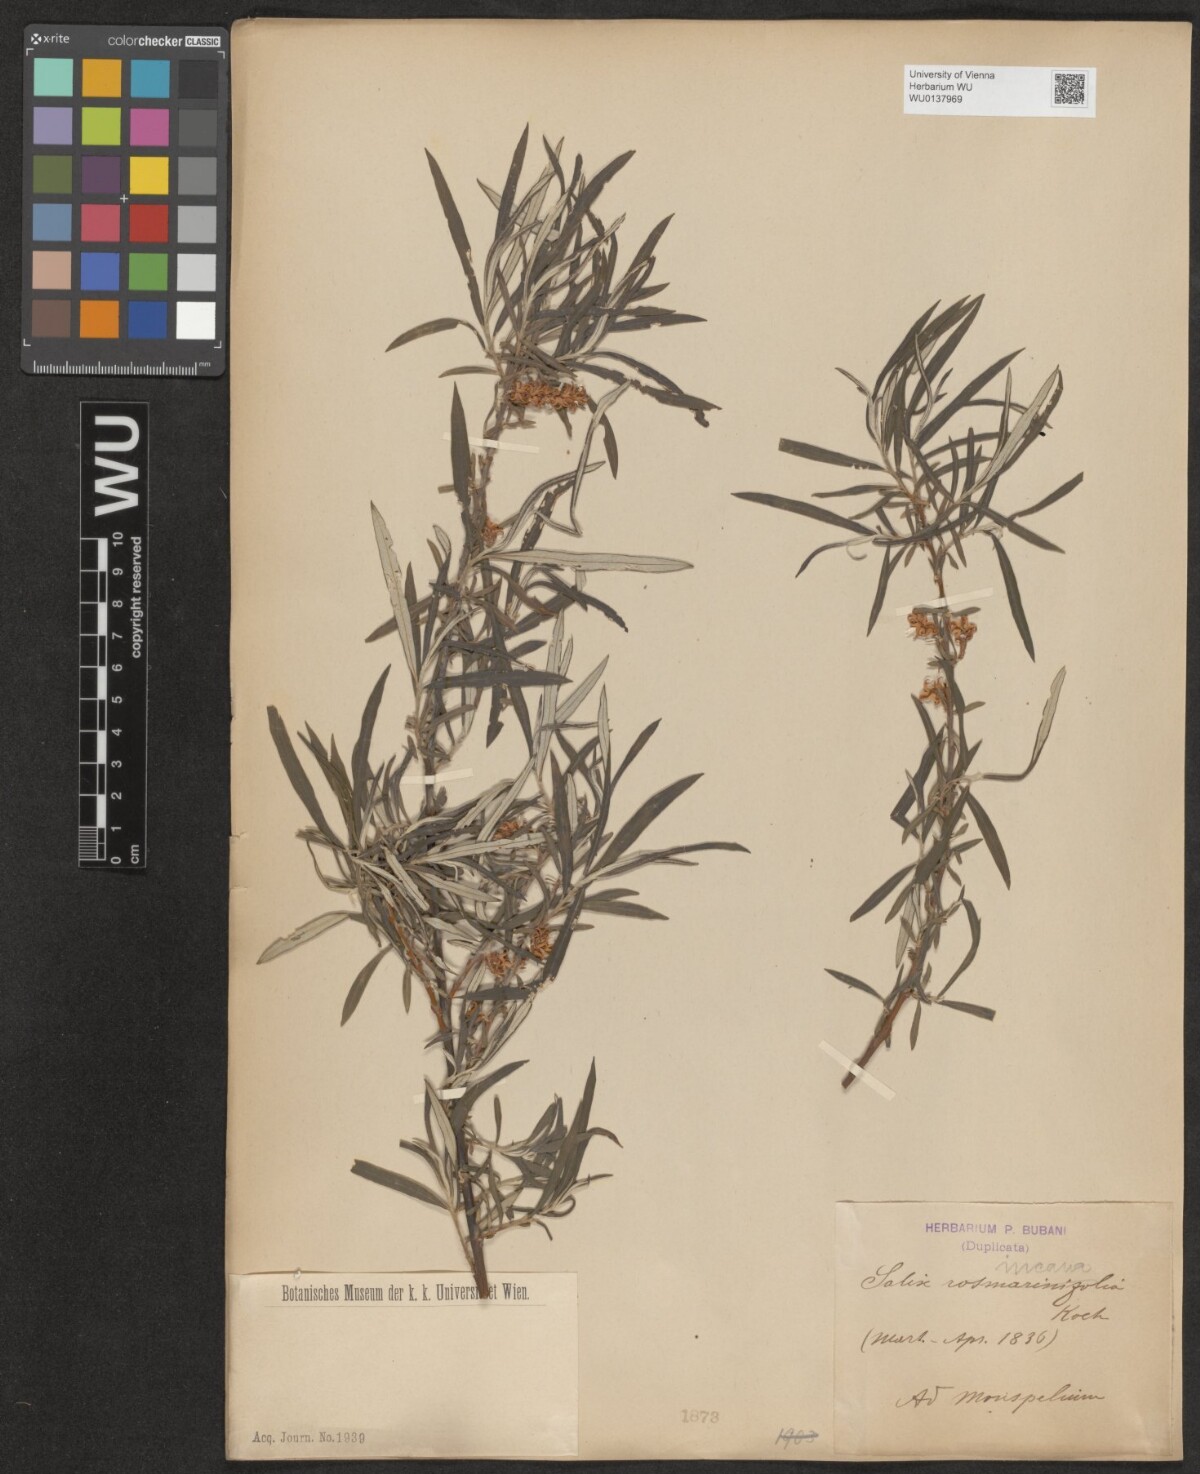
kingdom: Plantae
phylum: Tracheophyta
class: Magnoliopsida
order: Malpighiales
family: Salicaceae
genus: Salix
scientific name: Salix eleagnos
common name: Elaeagnus willow
